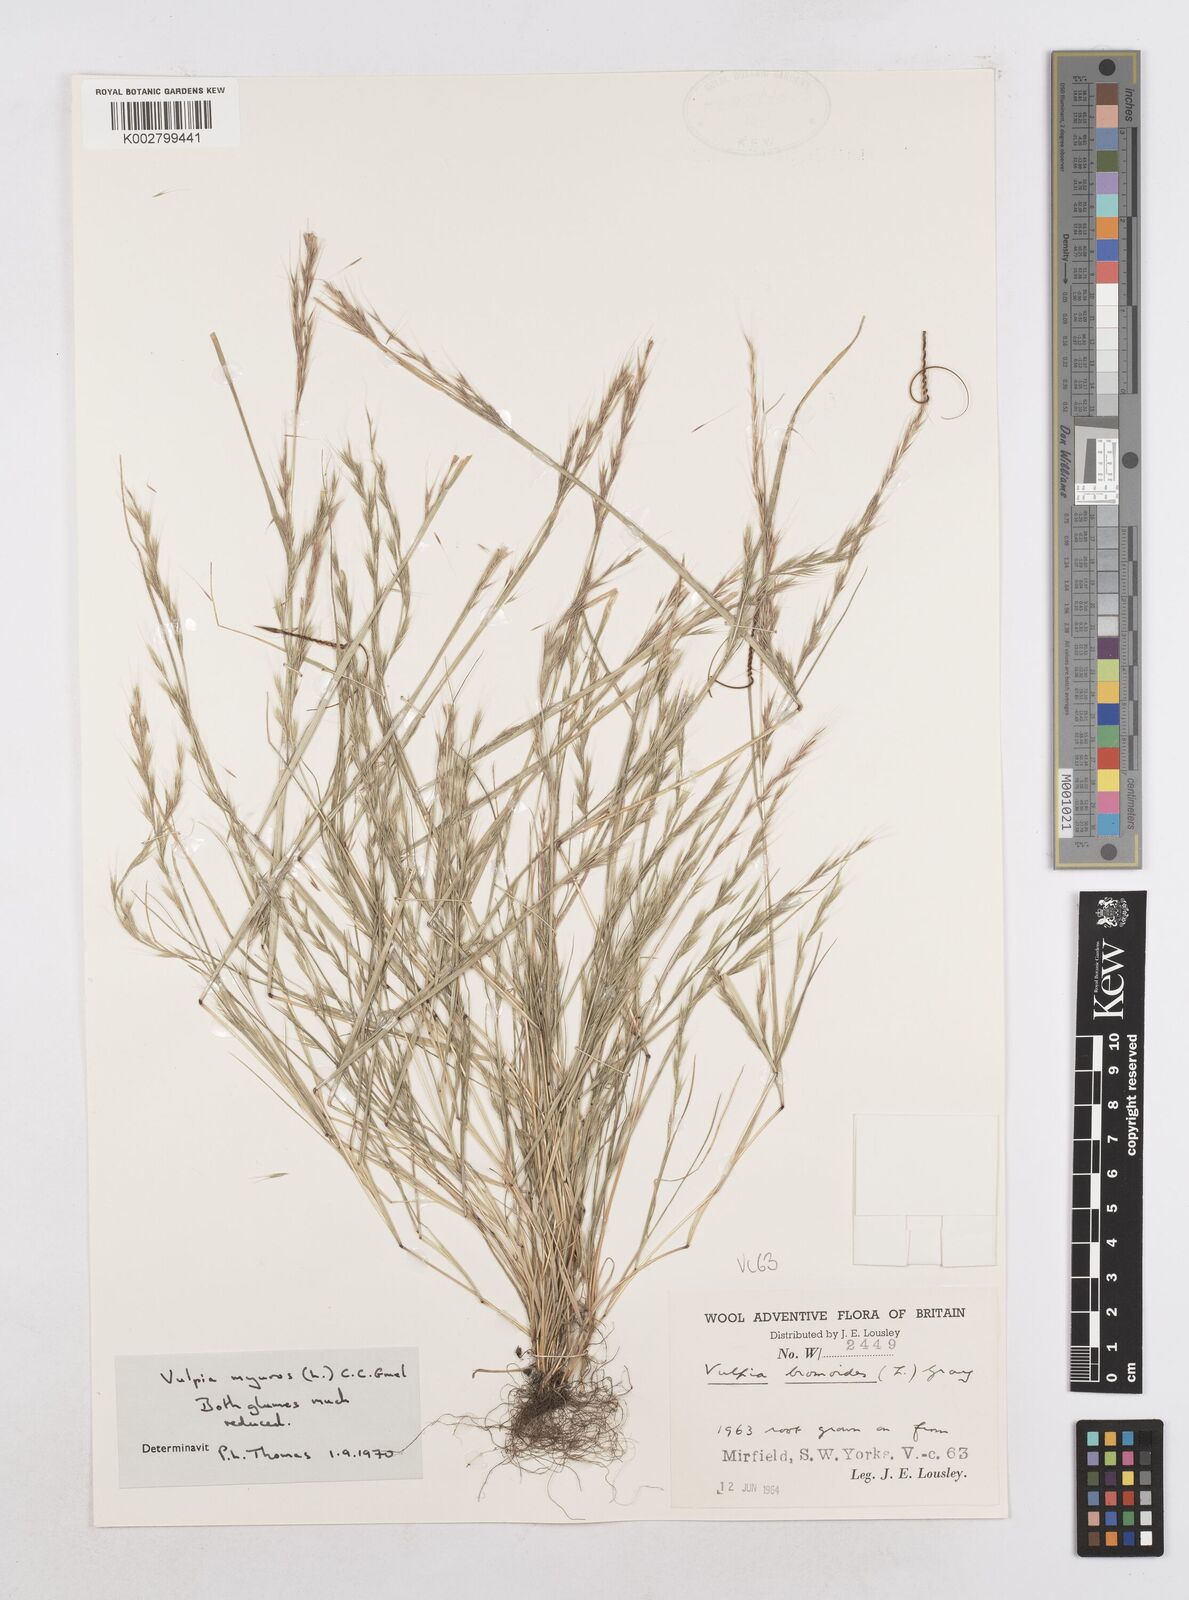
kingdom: Plantae
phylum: Tracheophyta
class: Liliopsida
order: Poales
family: Poaceae
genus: Festuca
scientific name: Festuca myuros
